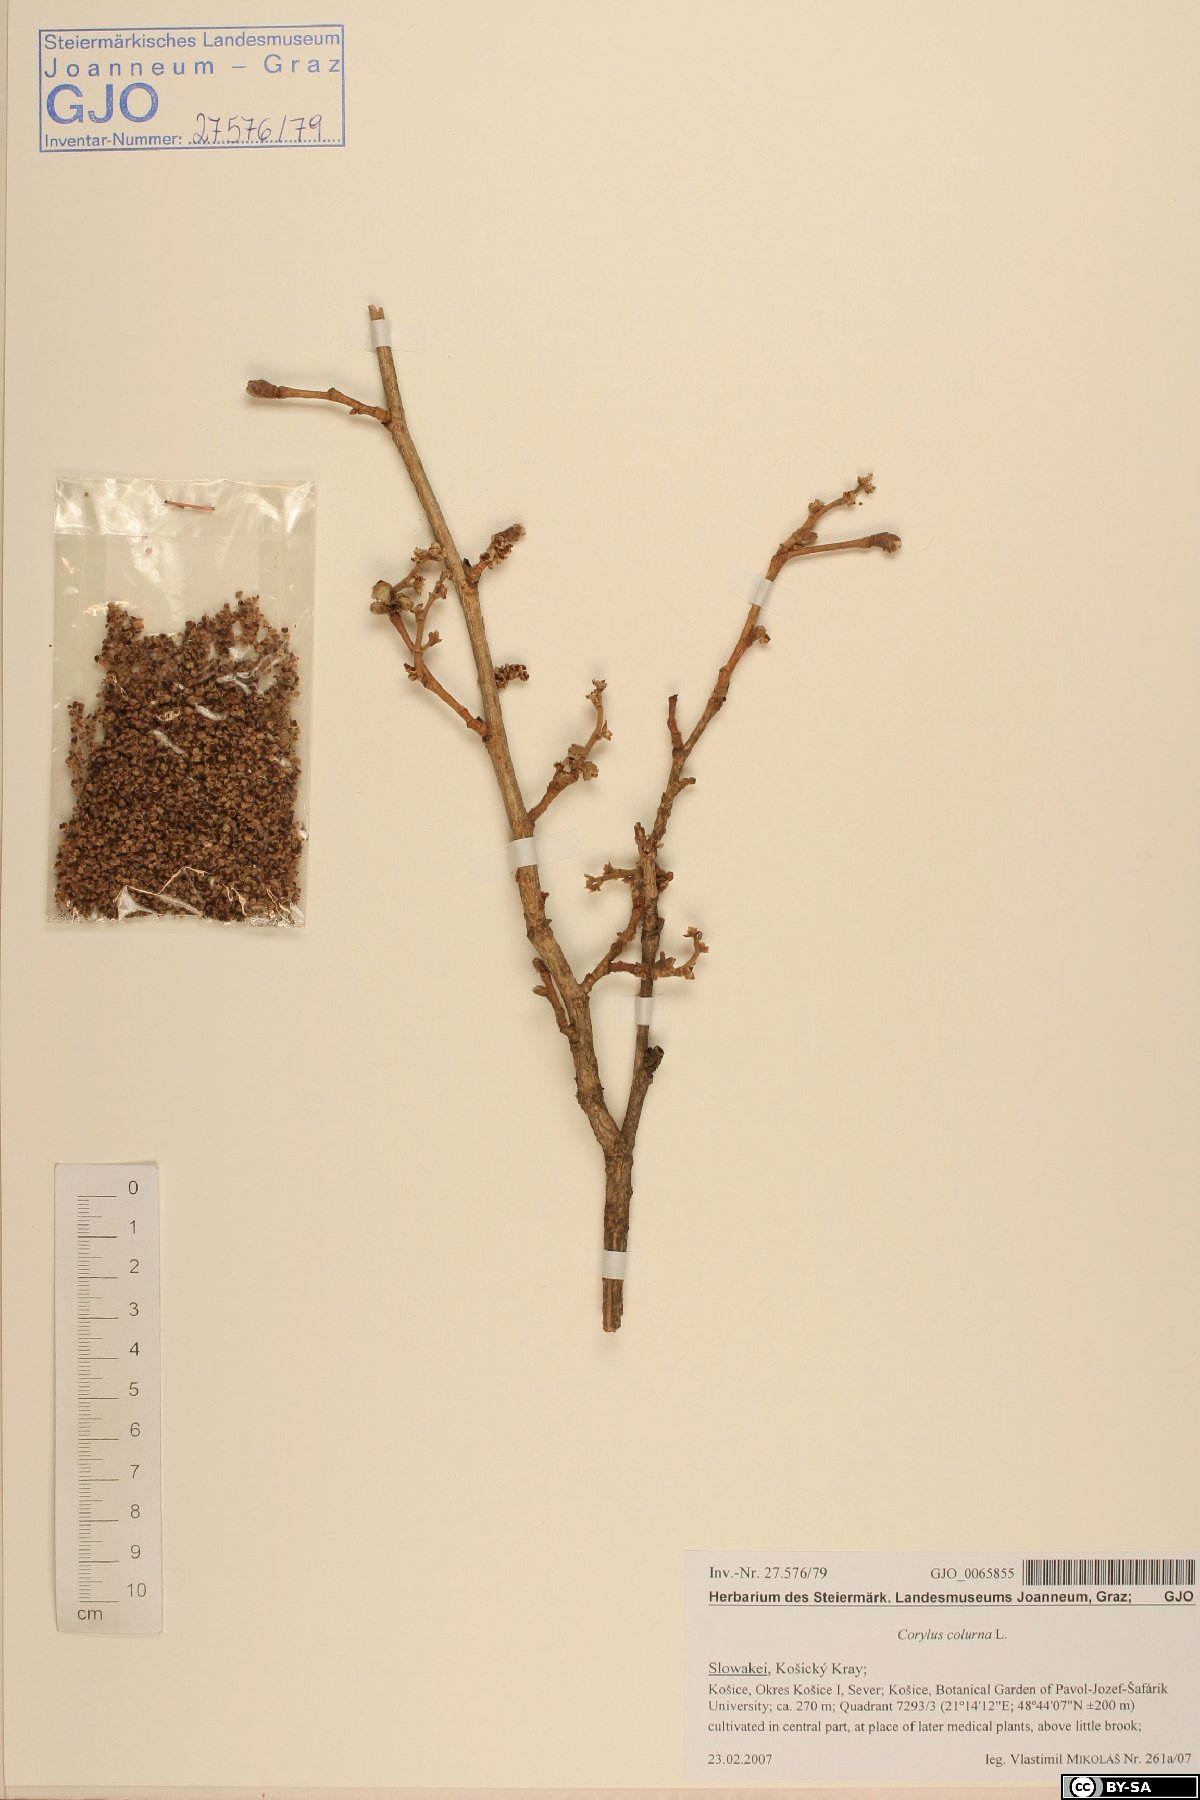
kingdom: Plantae
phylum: Tracheophyta
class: Magnoliopsida
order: Fagales
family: Betulaceae
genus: Corylus
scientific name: Corylus colurna
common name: Turkish hazel
